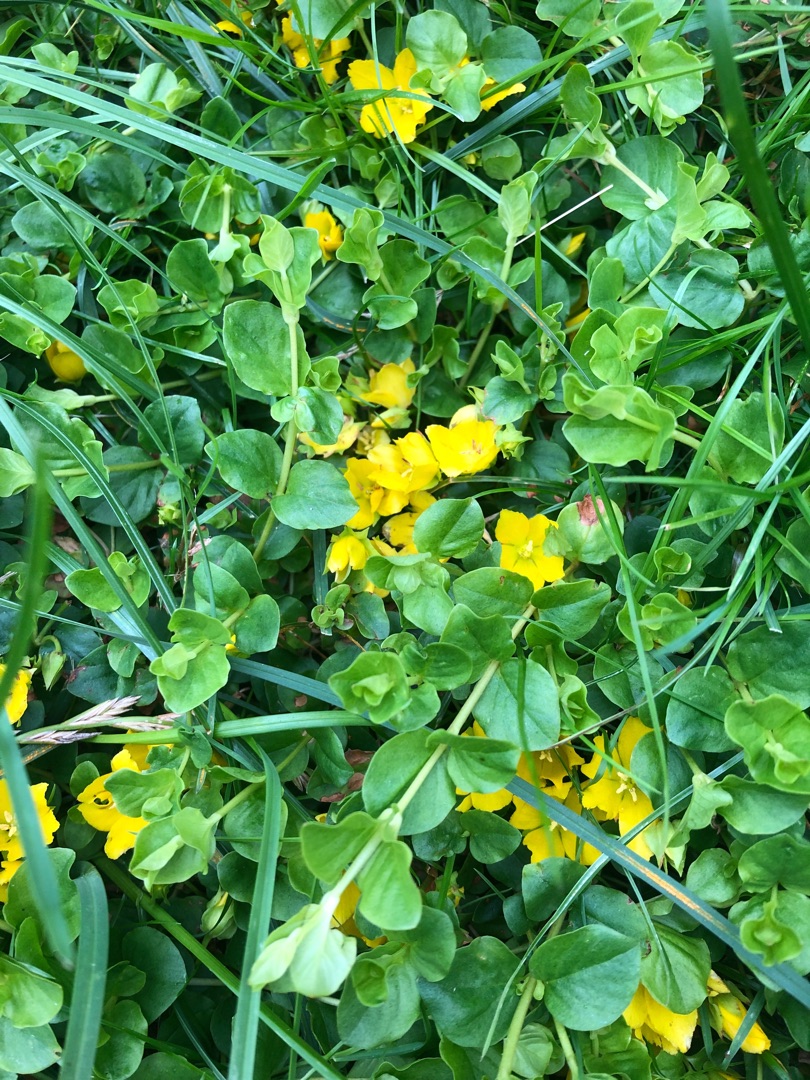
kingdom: Plantae
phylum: Tracheophyta
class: Magnoliopsida
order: Ericales
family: Primulaceae
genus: Lysimachia
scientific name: Lysimachia nummularia
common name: Pengebladet fredløs
